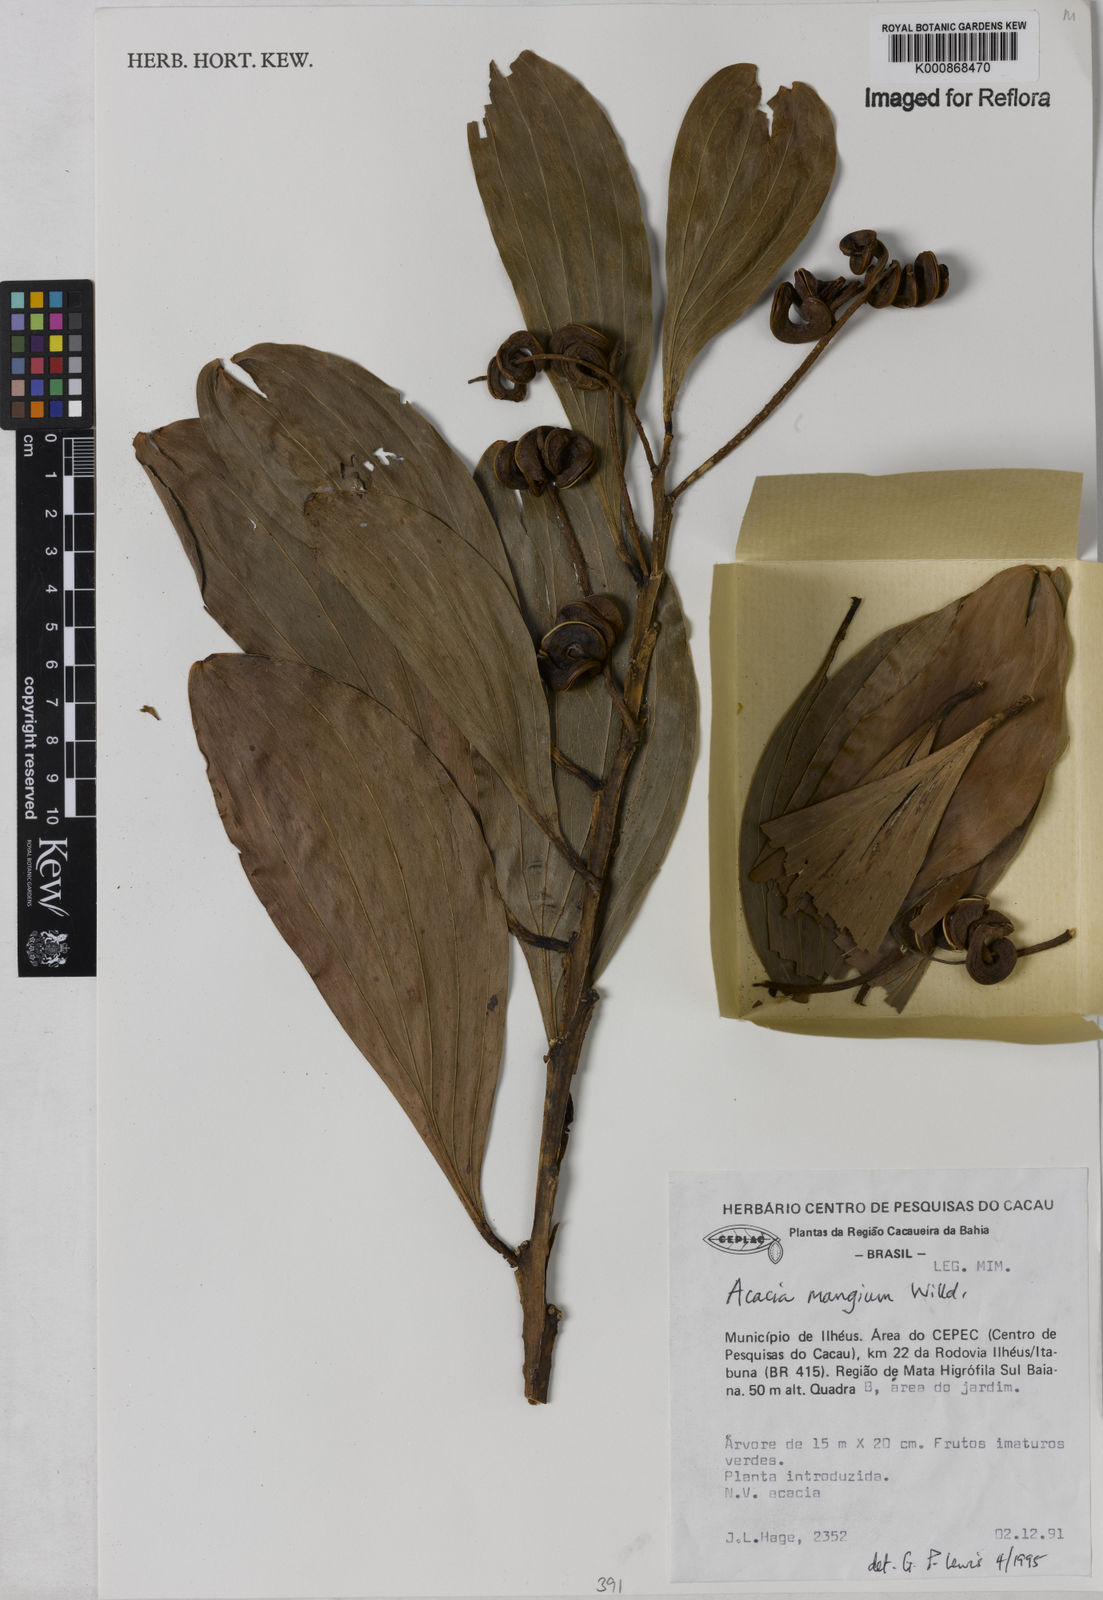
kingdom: Plantae
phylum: Tracheophyta
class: Magnoliopsida
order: Fabales
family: Fabaceae
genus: Acacia
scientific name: Acacia mangium
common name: Black wattle
